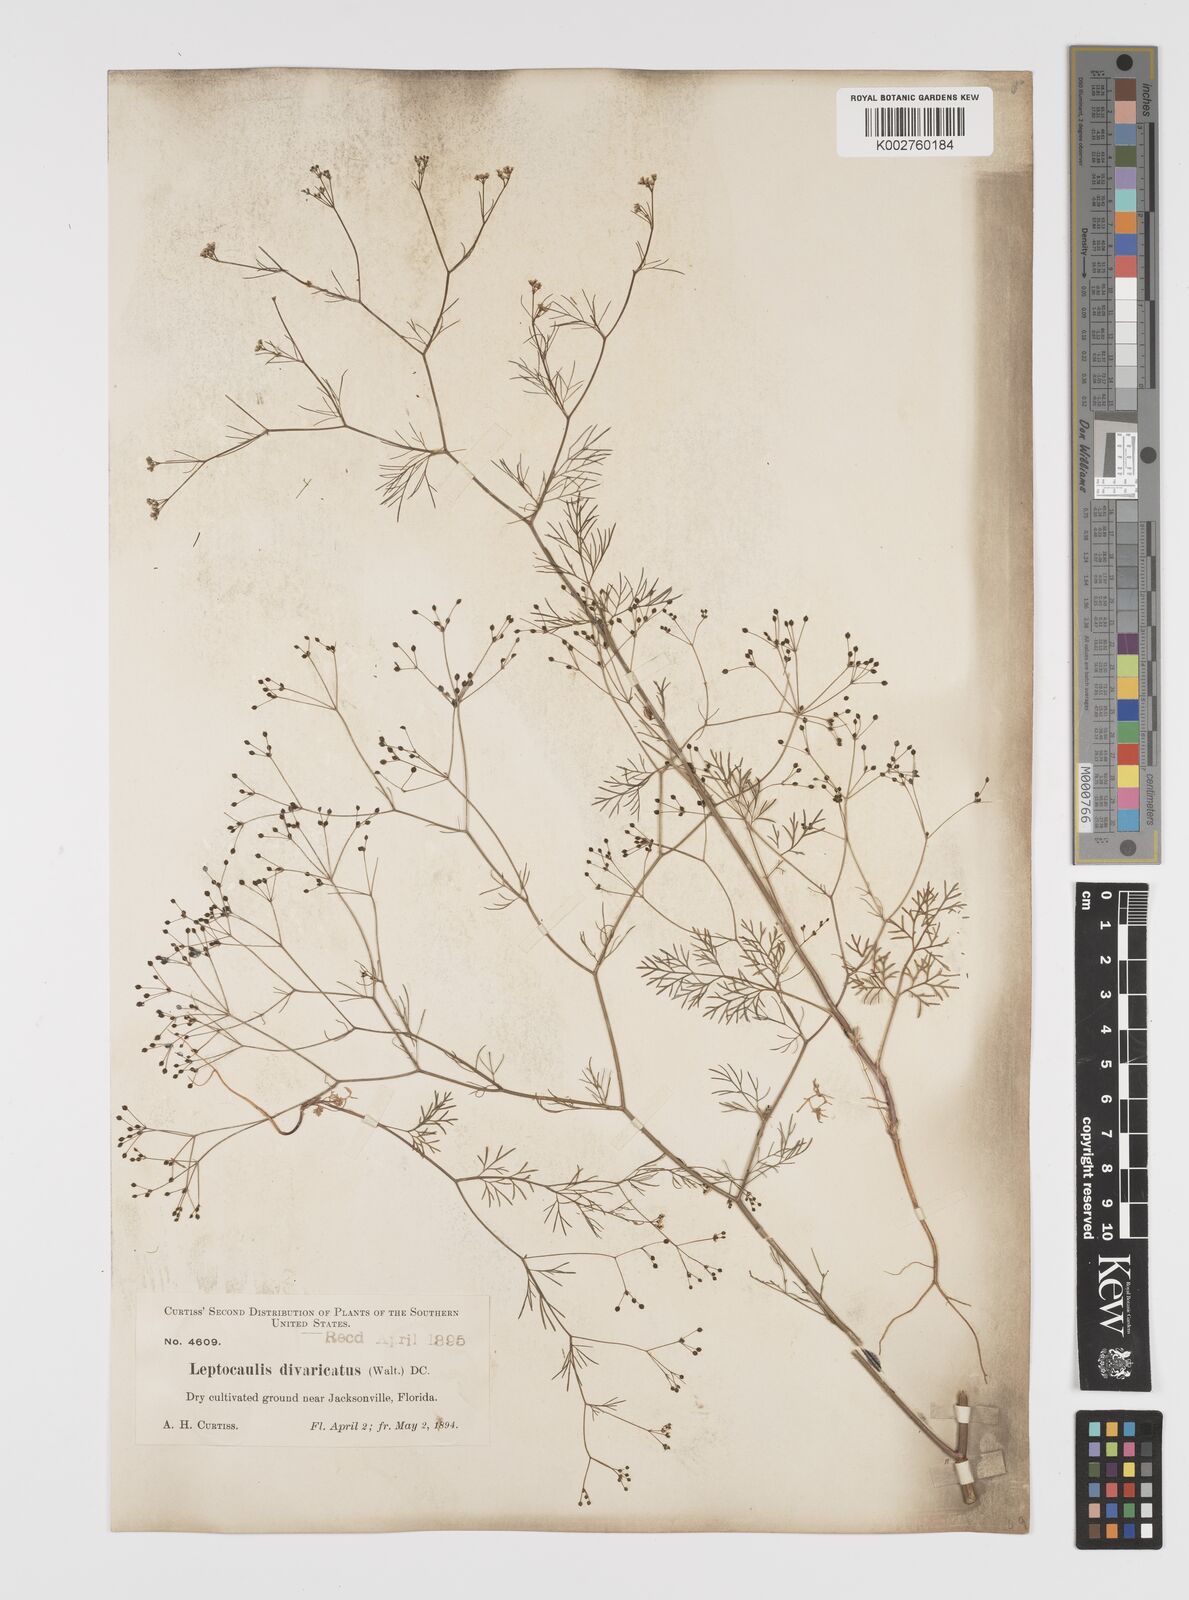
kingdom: Plantae
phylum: Tracheophyta
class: Magnoliopsida
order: Apiales
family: Apiaceae
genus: Spermolepis
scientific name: Spermolepis divaricata
